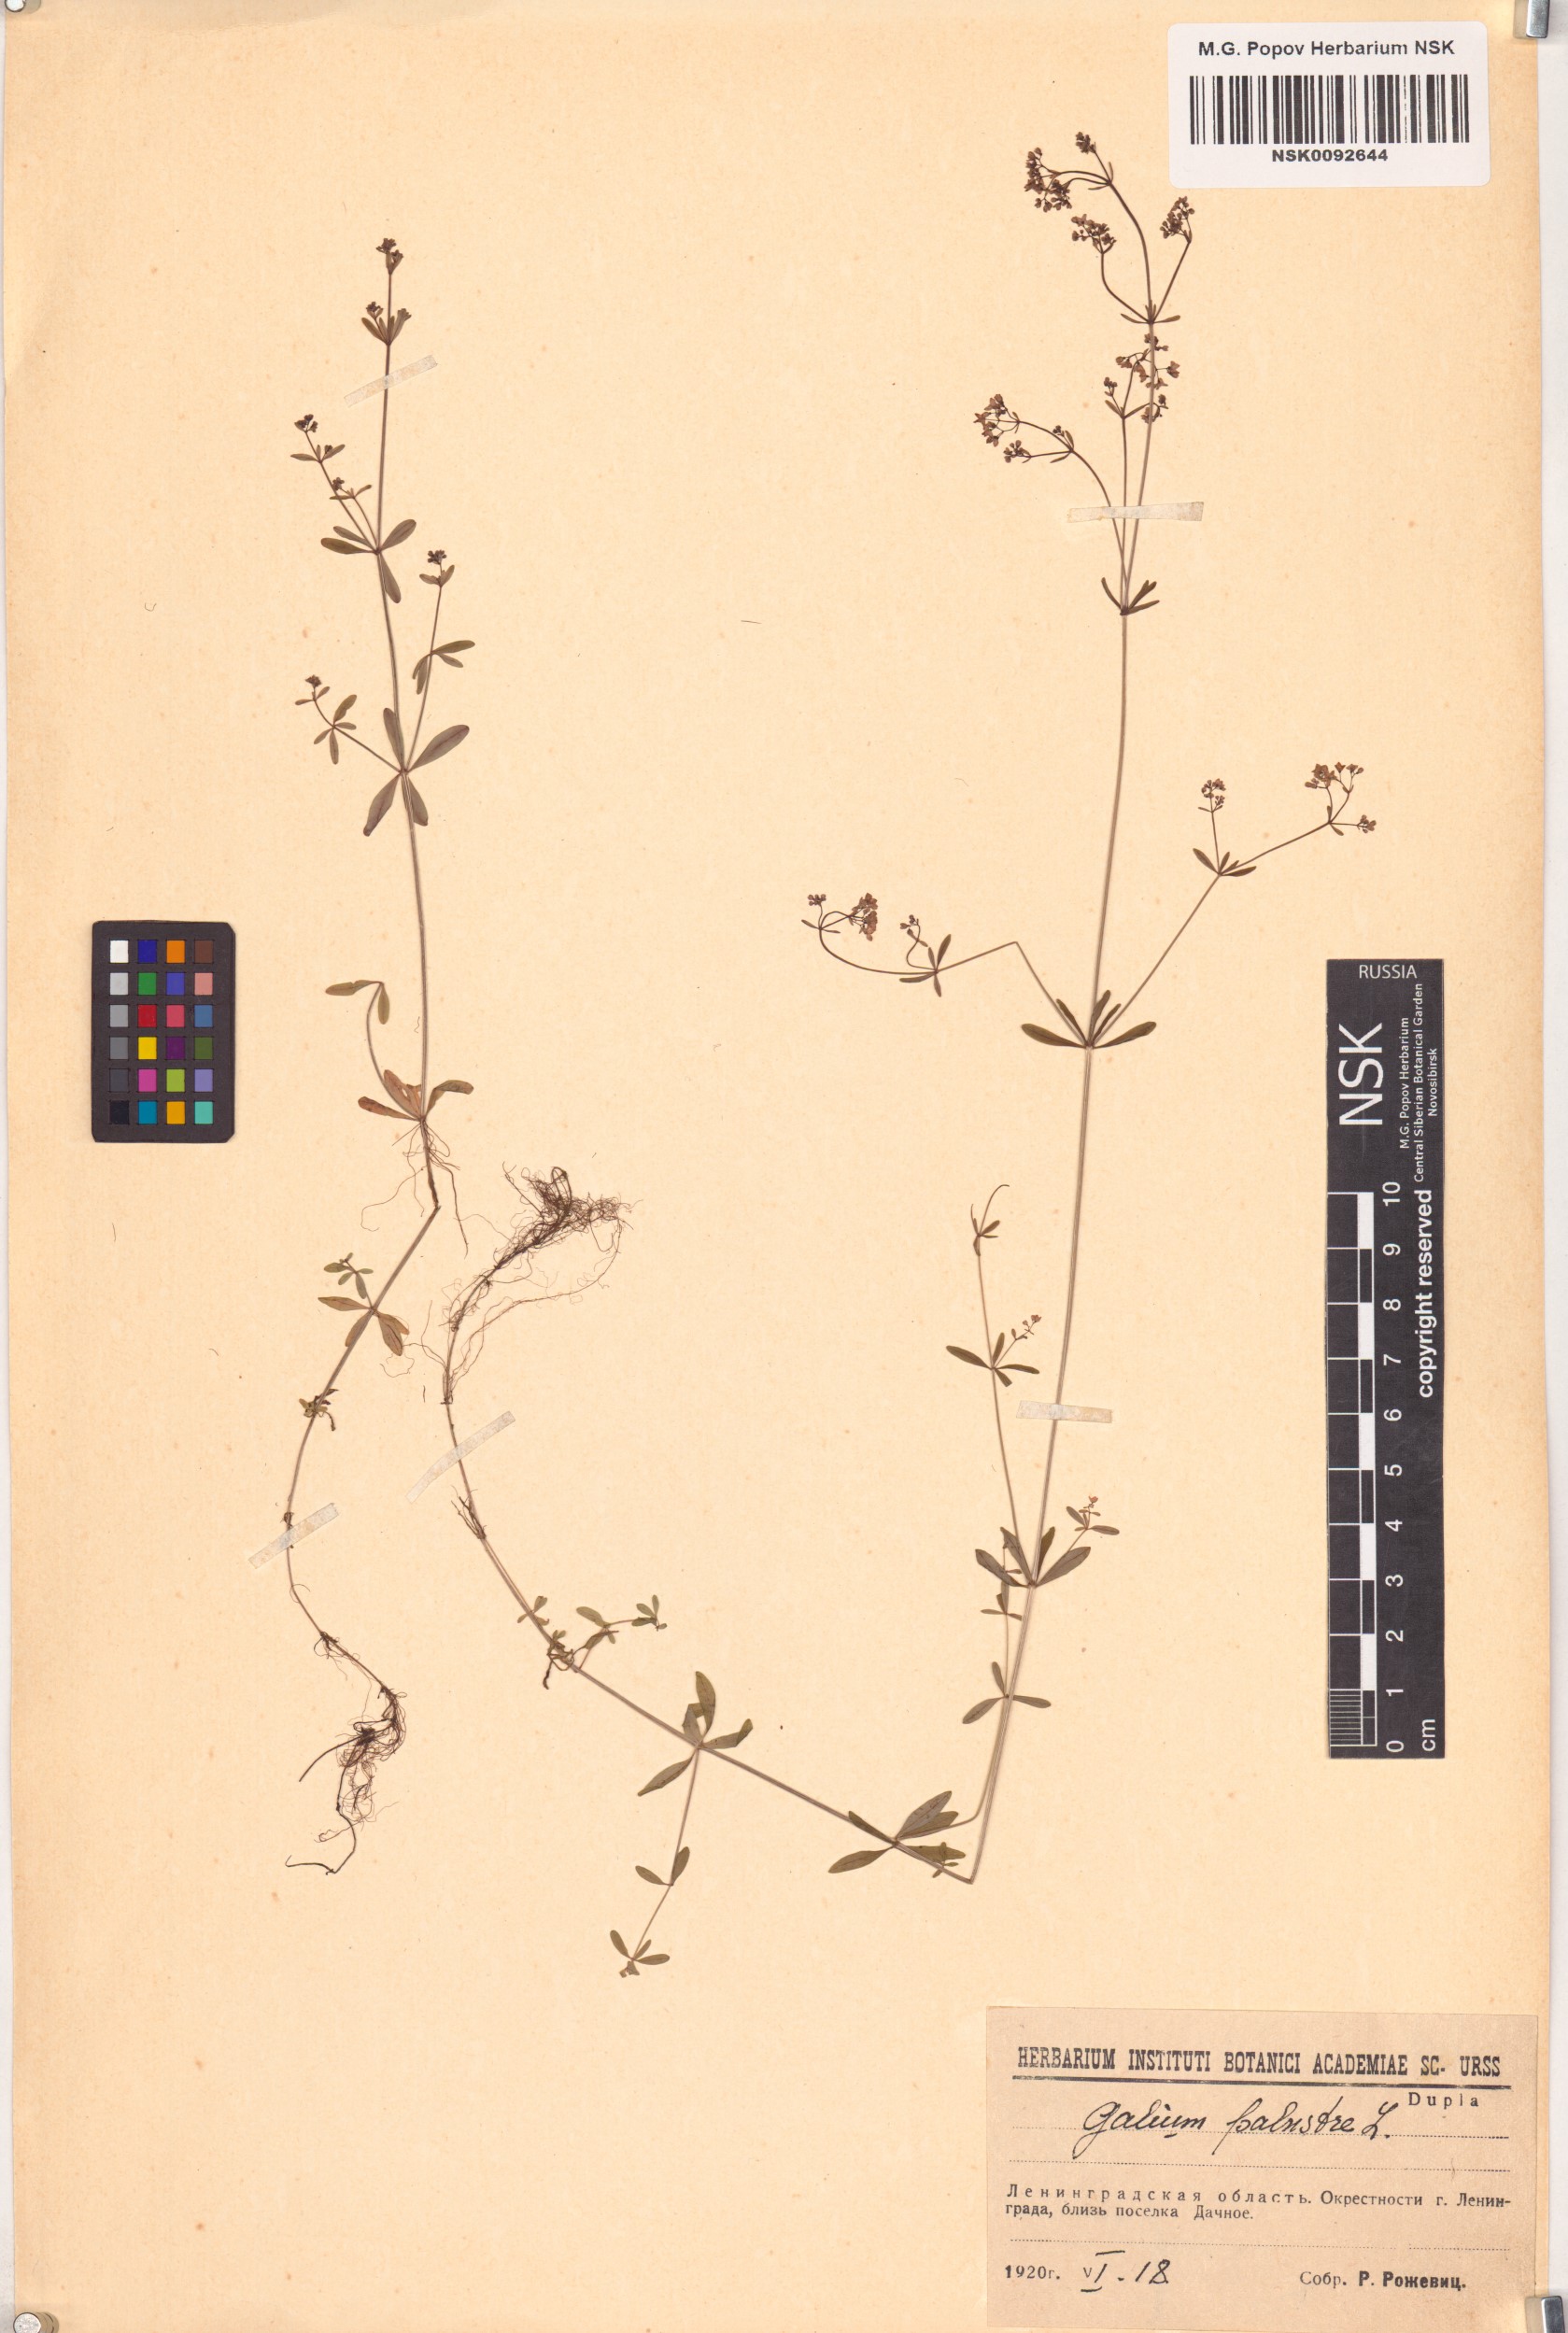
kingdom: Plantae
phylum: Tracheophyta
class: Magnoliopsida
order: Gentianales
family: Rubiaceae
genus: Galium
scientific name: Galium palustre
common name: Common marsh-bedstraw
